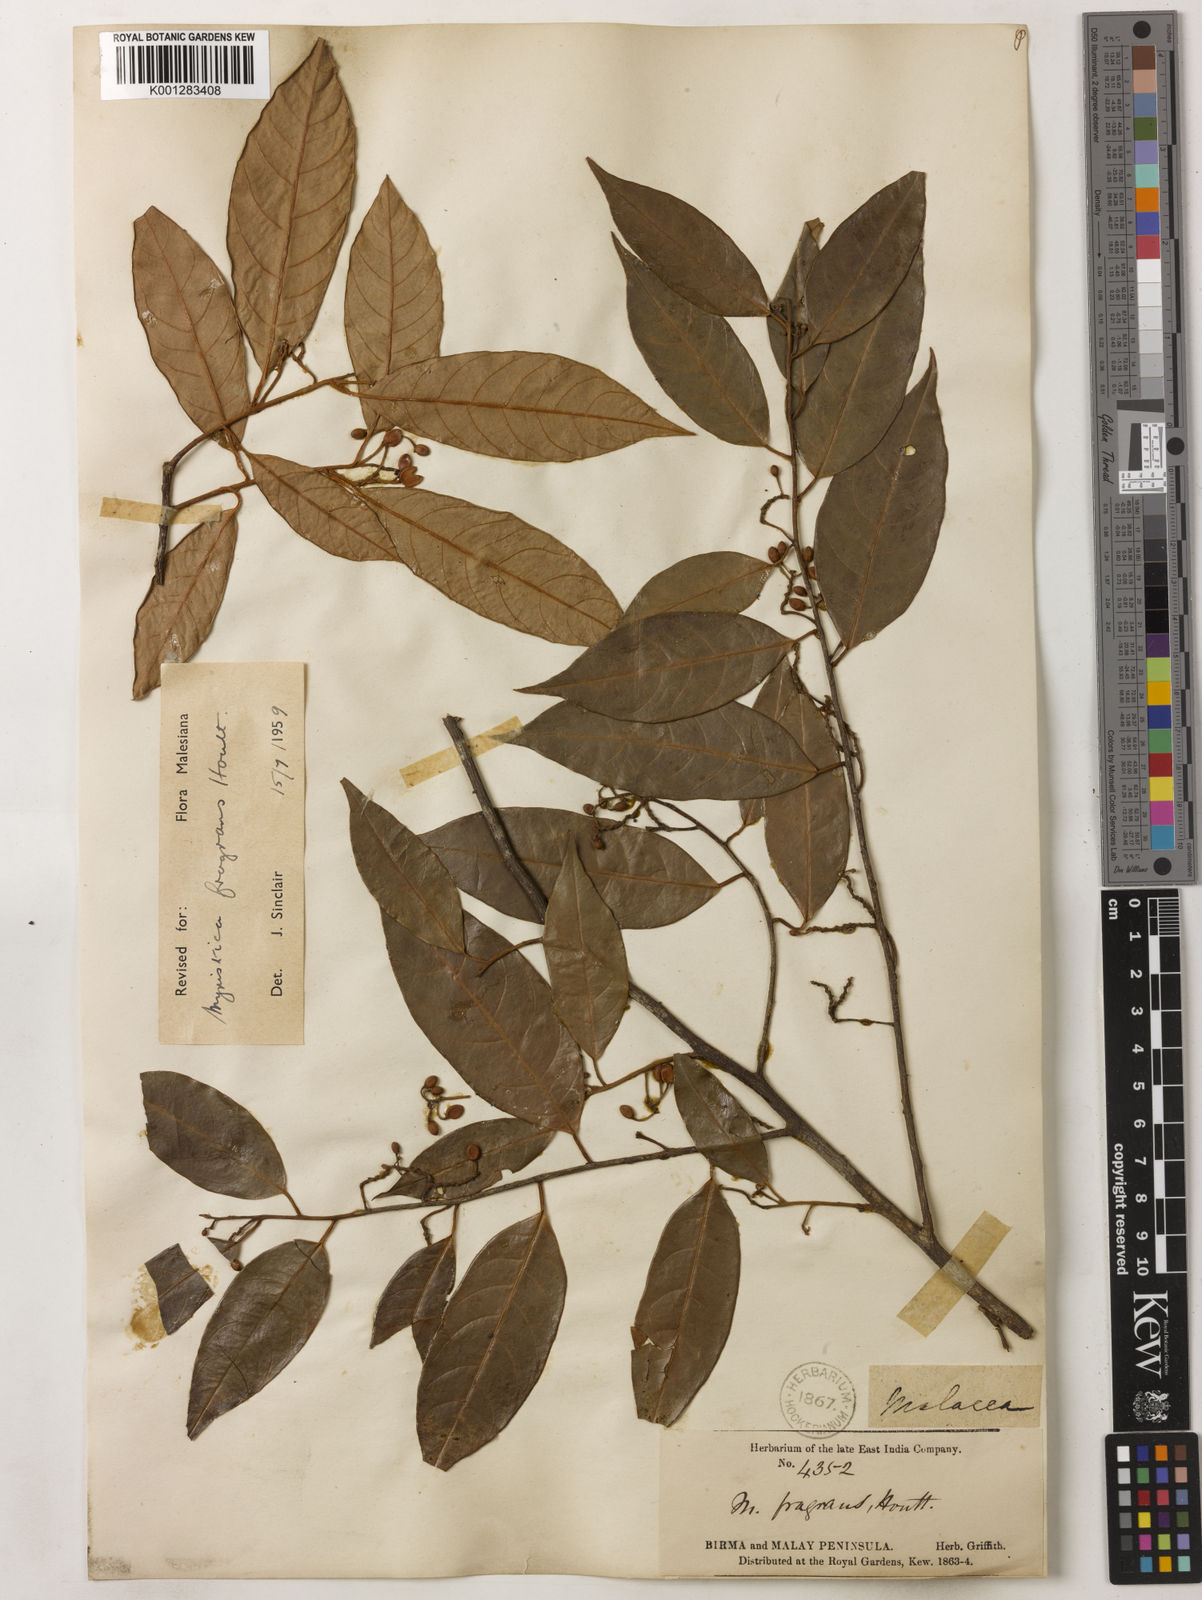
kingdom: Plantae
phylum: Tracheophyta
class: Magnoliopsida
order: Magnoliales
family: Myristicaceae
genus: Myristica
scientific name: Myristica fragrans
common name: Nutmeg
